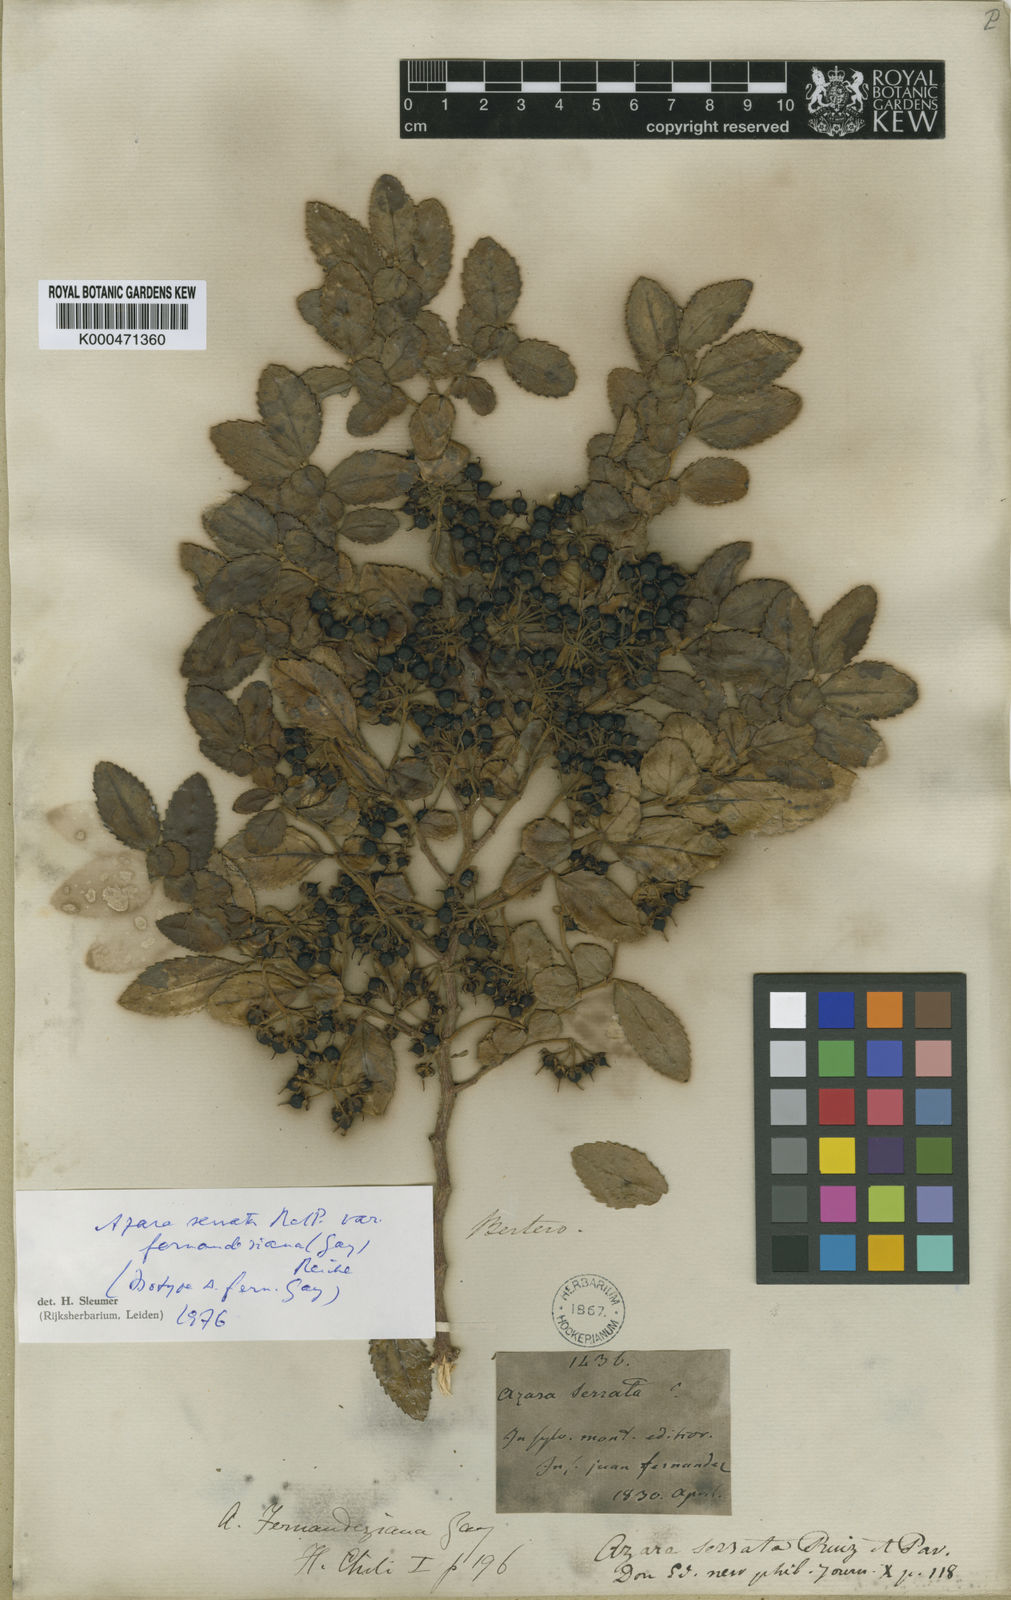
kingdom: Plantae
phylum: Tracheophyta
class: Magnoliopsida
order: Malpighiales
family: Salicaceae
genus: Azara
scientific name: Azara serrata
